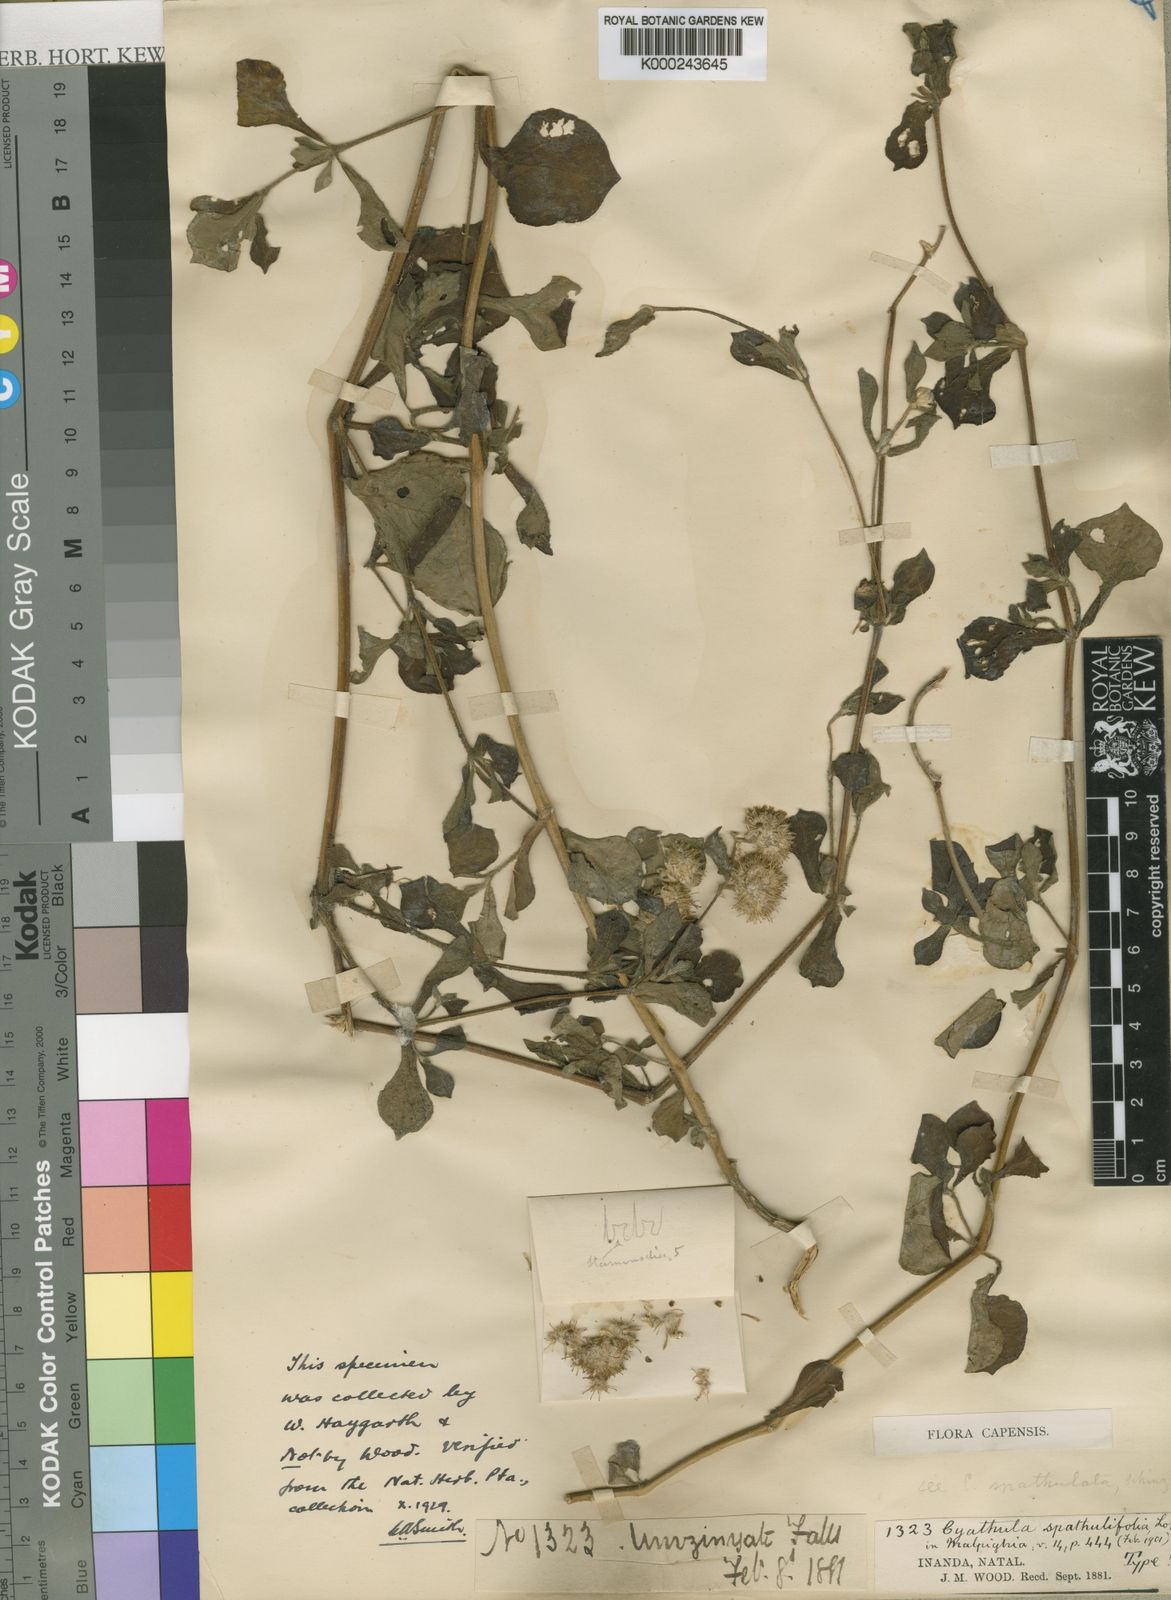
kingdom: Plantae
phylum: Tracheophyta
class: Magnoliopsida
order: Caryophyllales
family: Amaranthaceae
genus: Cyathula
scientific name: Cyathula natalensis
